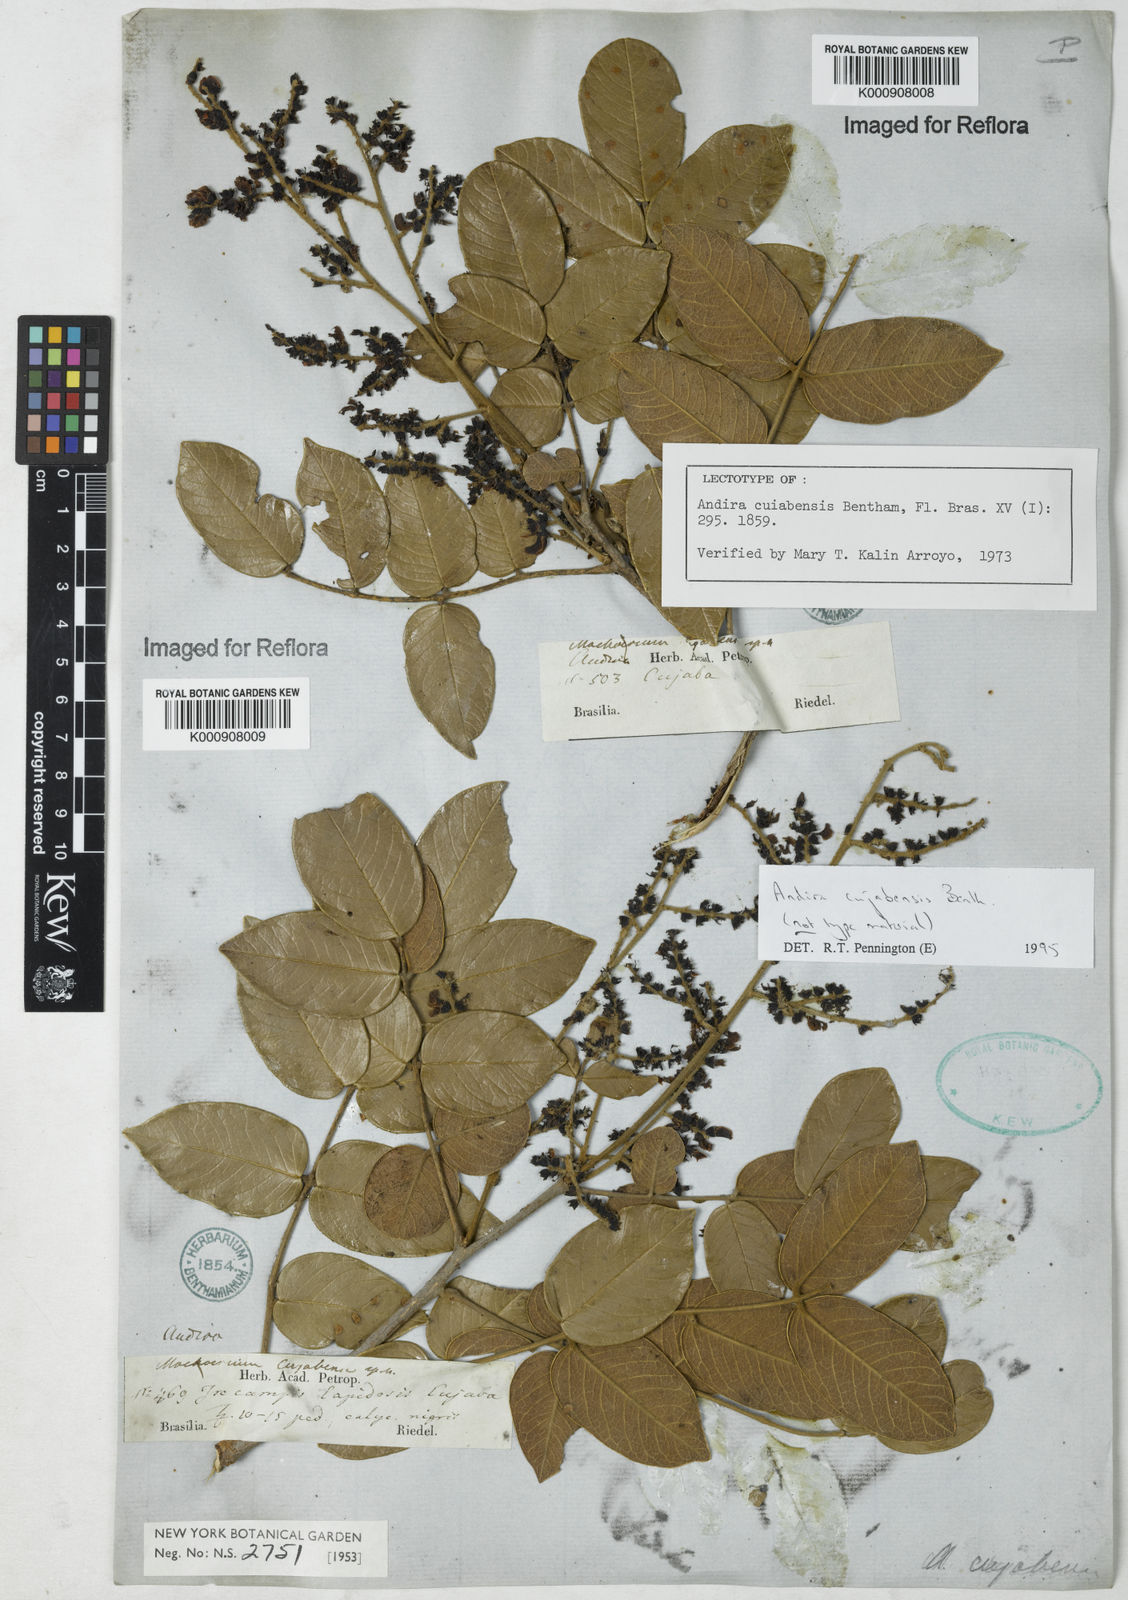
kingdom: Plantae
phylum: Tracheophyta
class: Magnoliopsida
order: Fabales
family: Fabaceae
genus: Andira
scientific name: Andira cujabensis
